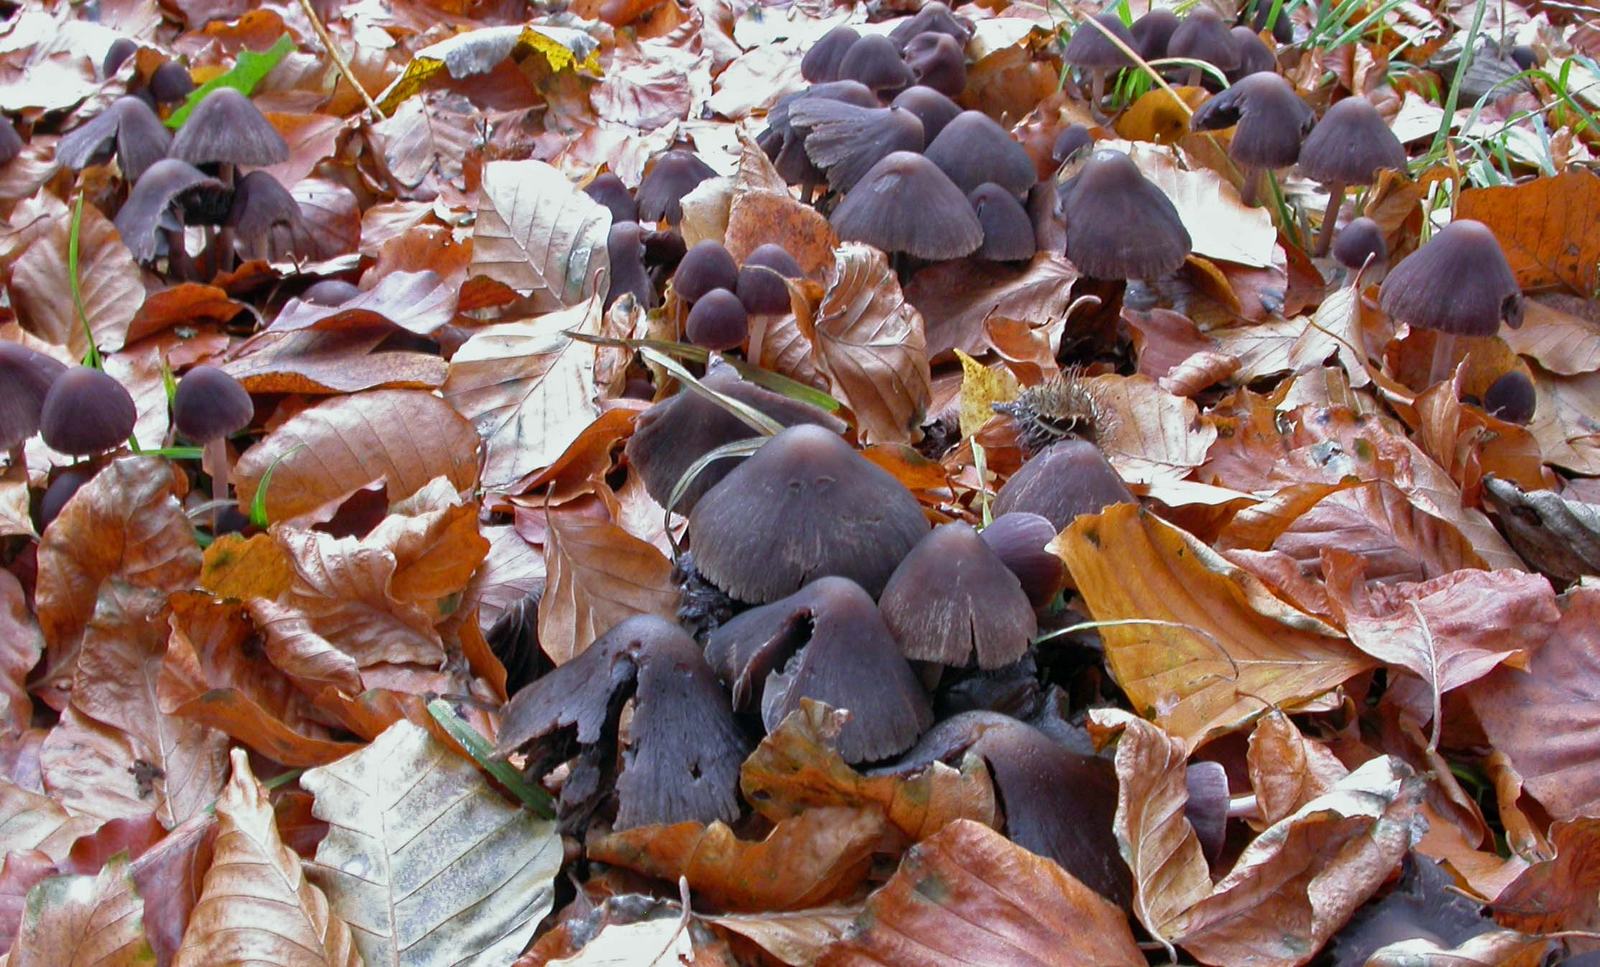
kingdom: Fungi
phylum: Basidiomycota
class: Agaricomycetes
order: Agaricales
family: Psathyrellaceae
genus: Psathyrella
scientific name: Psathyrella bipellis
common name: vinrød mørkhat
